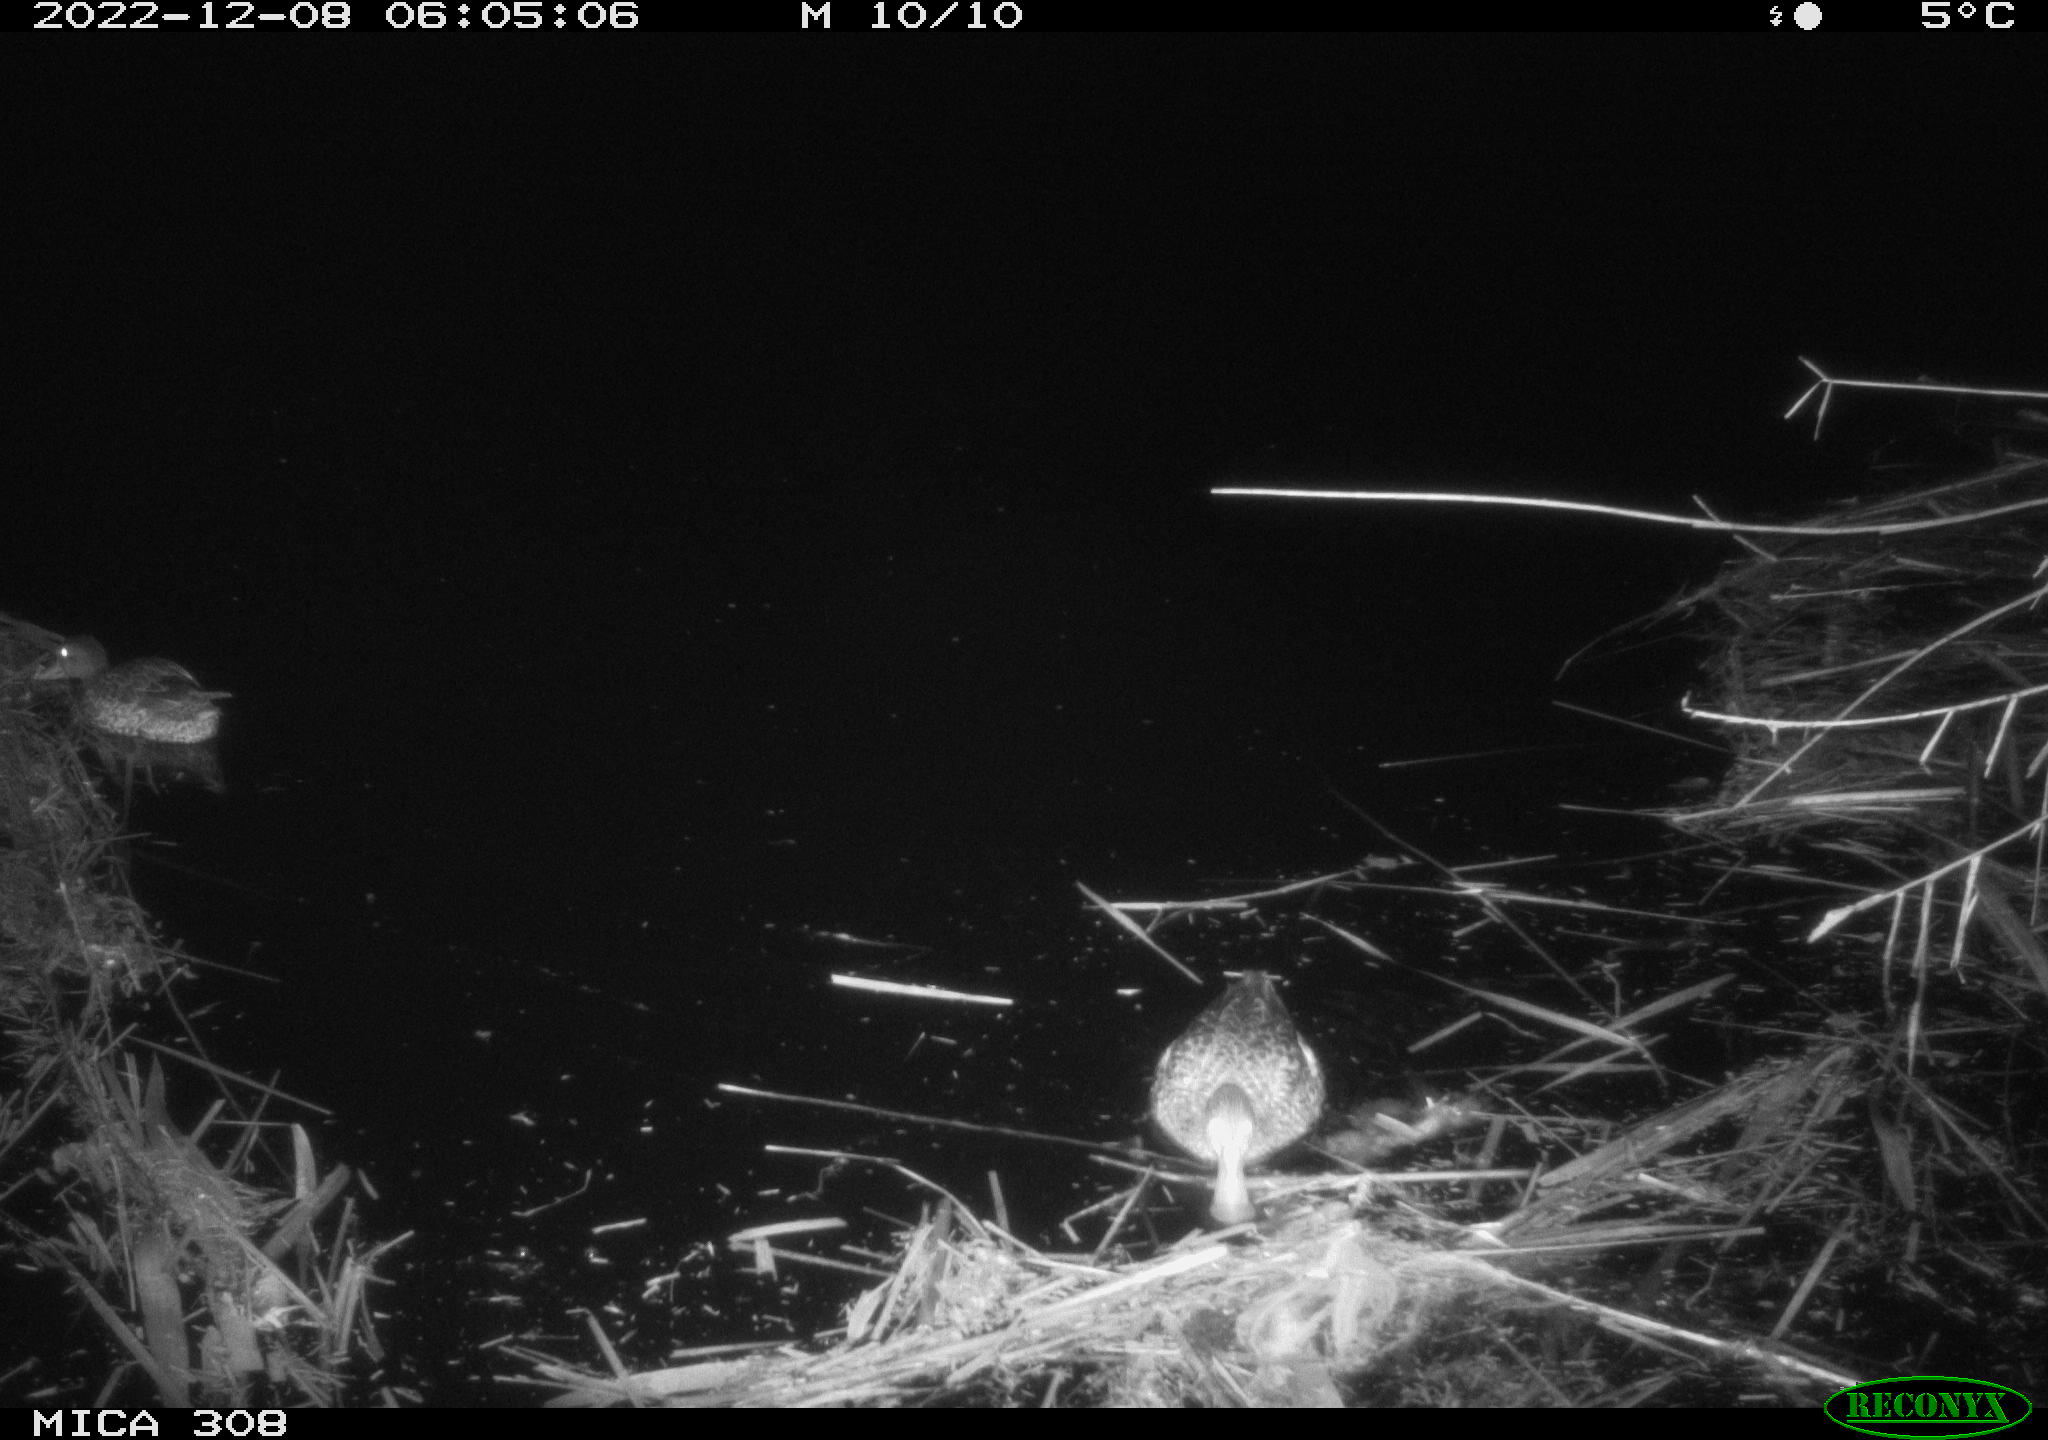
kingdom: Animalia
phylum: Chordata
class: Mammalia
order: Rodentia
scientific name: Rodentia
